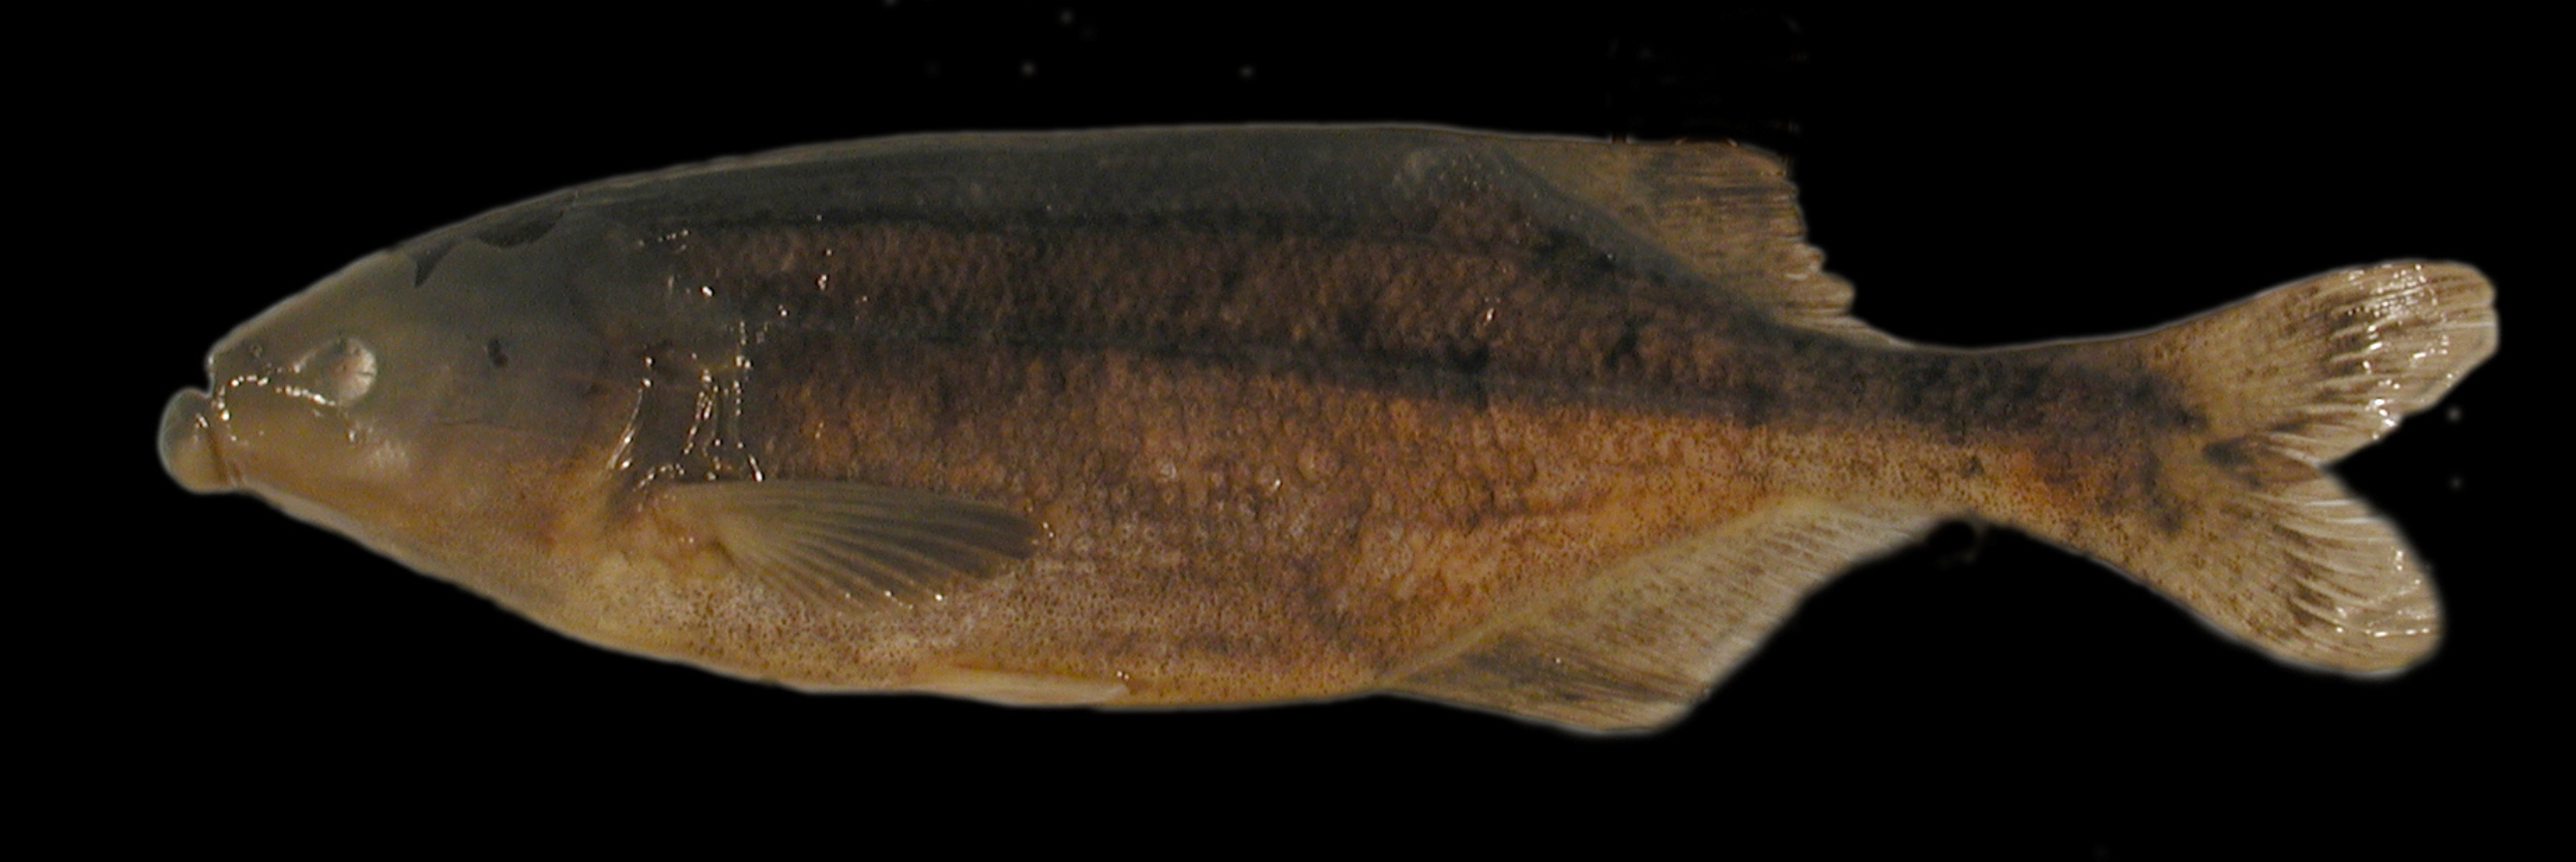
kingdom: Animalia
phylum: Chordata
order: Osteoglossiformes
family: Mormyridae
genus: Marcusenius
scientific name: Marcusenius macrolepidotus
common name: Bulldog
